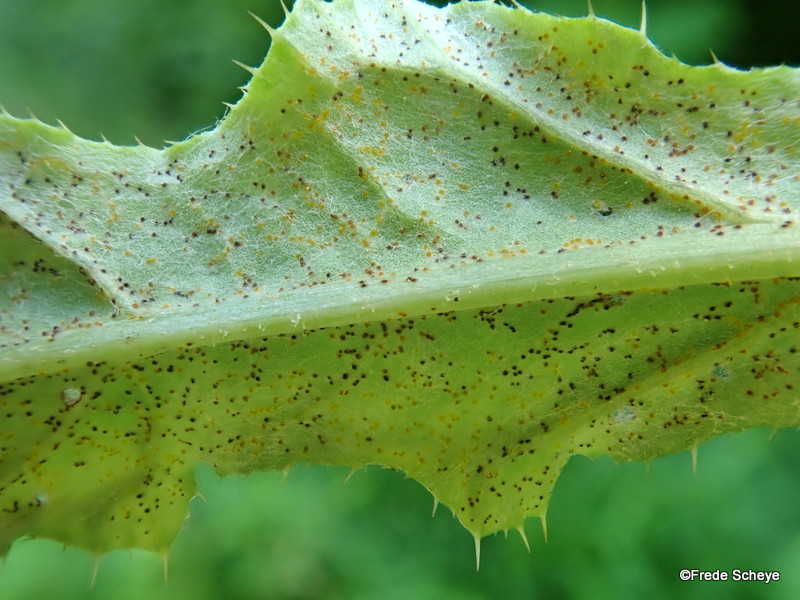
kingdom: Fungi
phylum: Basidiomycota
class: Pucciniomycetes
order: Pucciniales
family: Pucciniaceae
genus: Puccinia
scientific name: Puccinia suaveolens
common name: tidsel-tvecellerust
